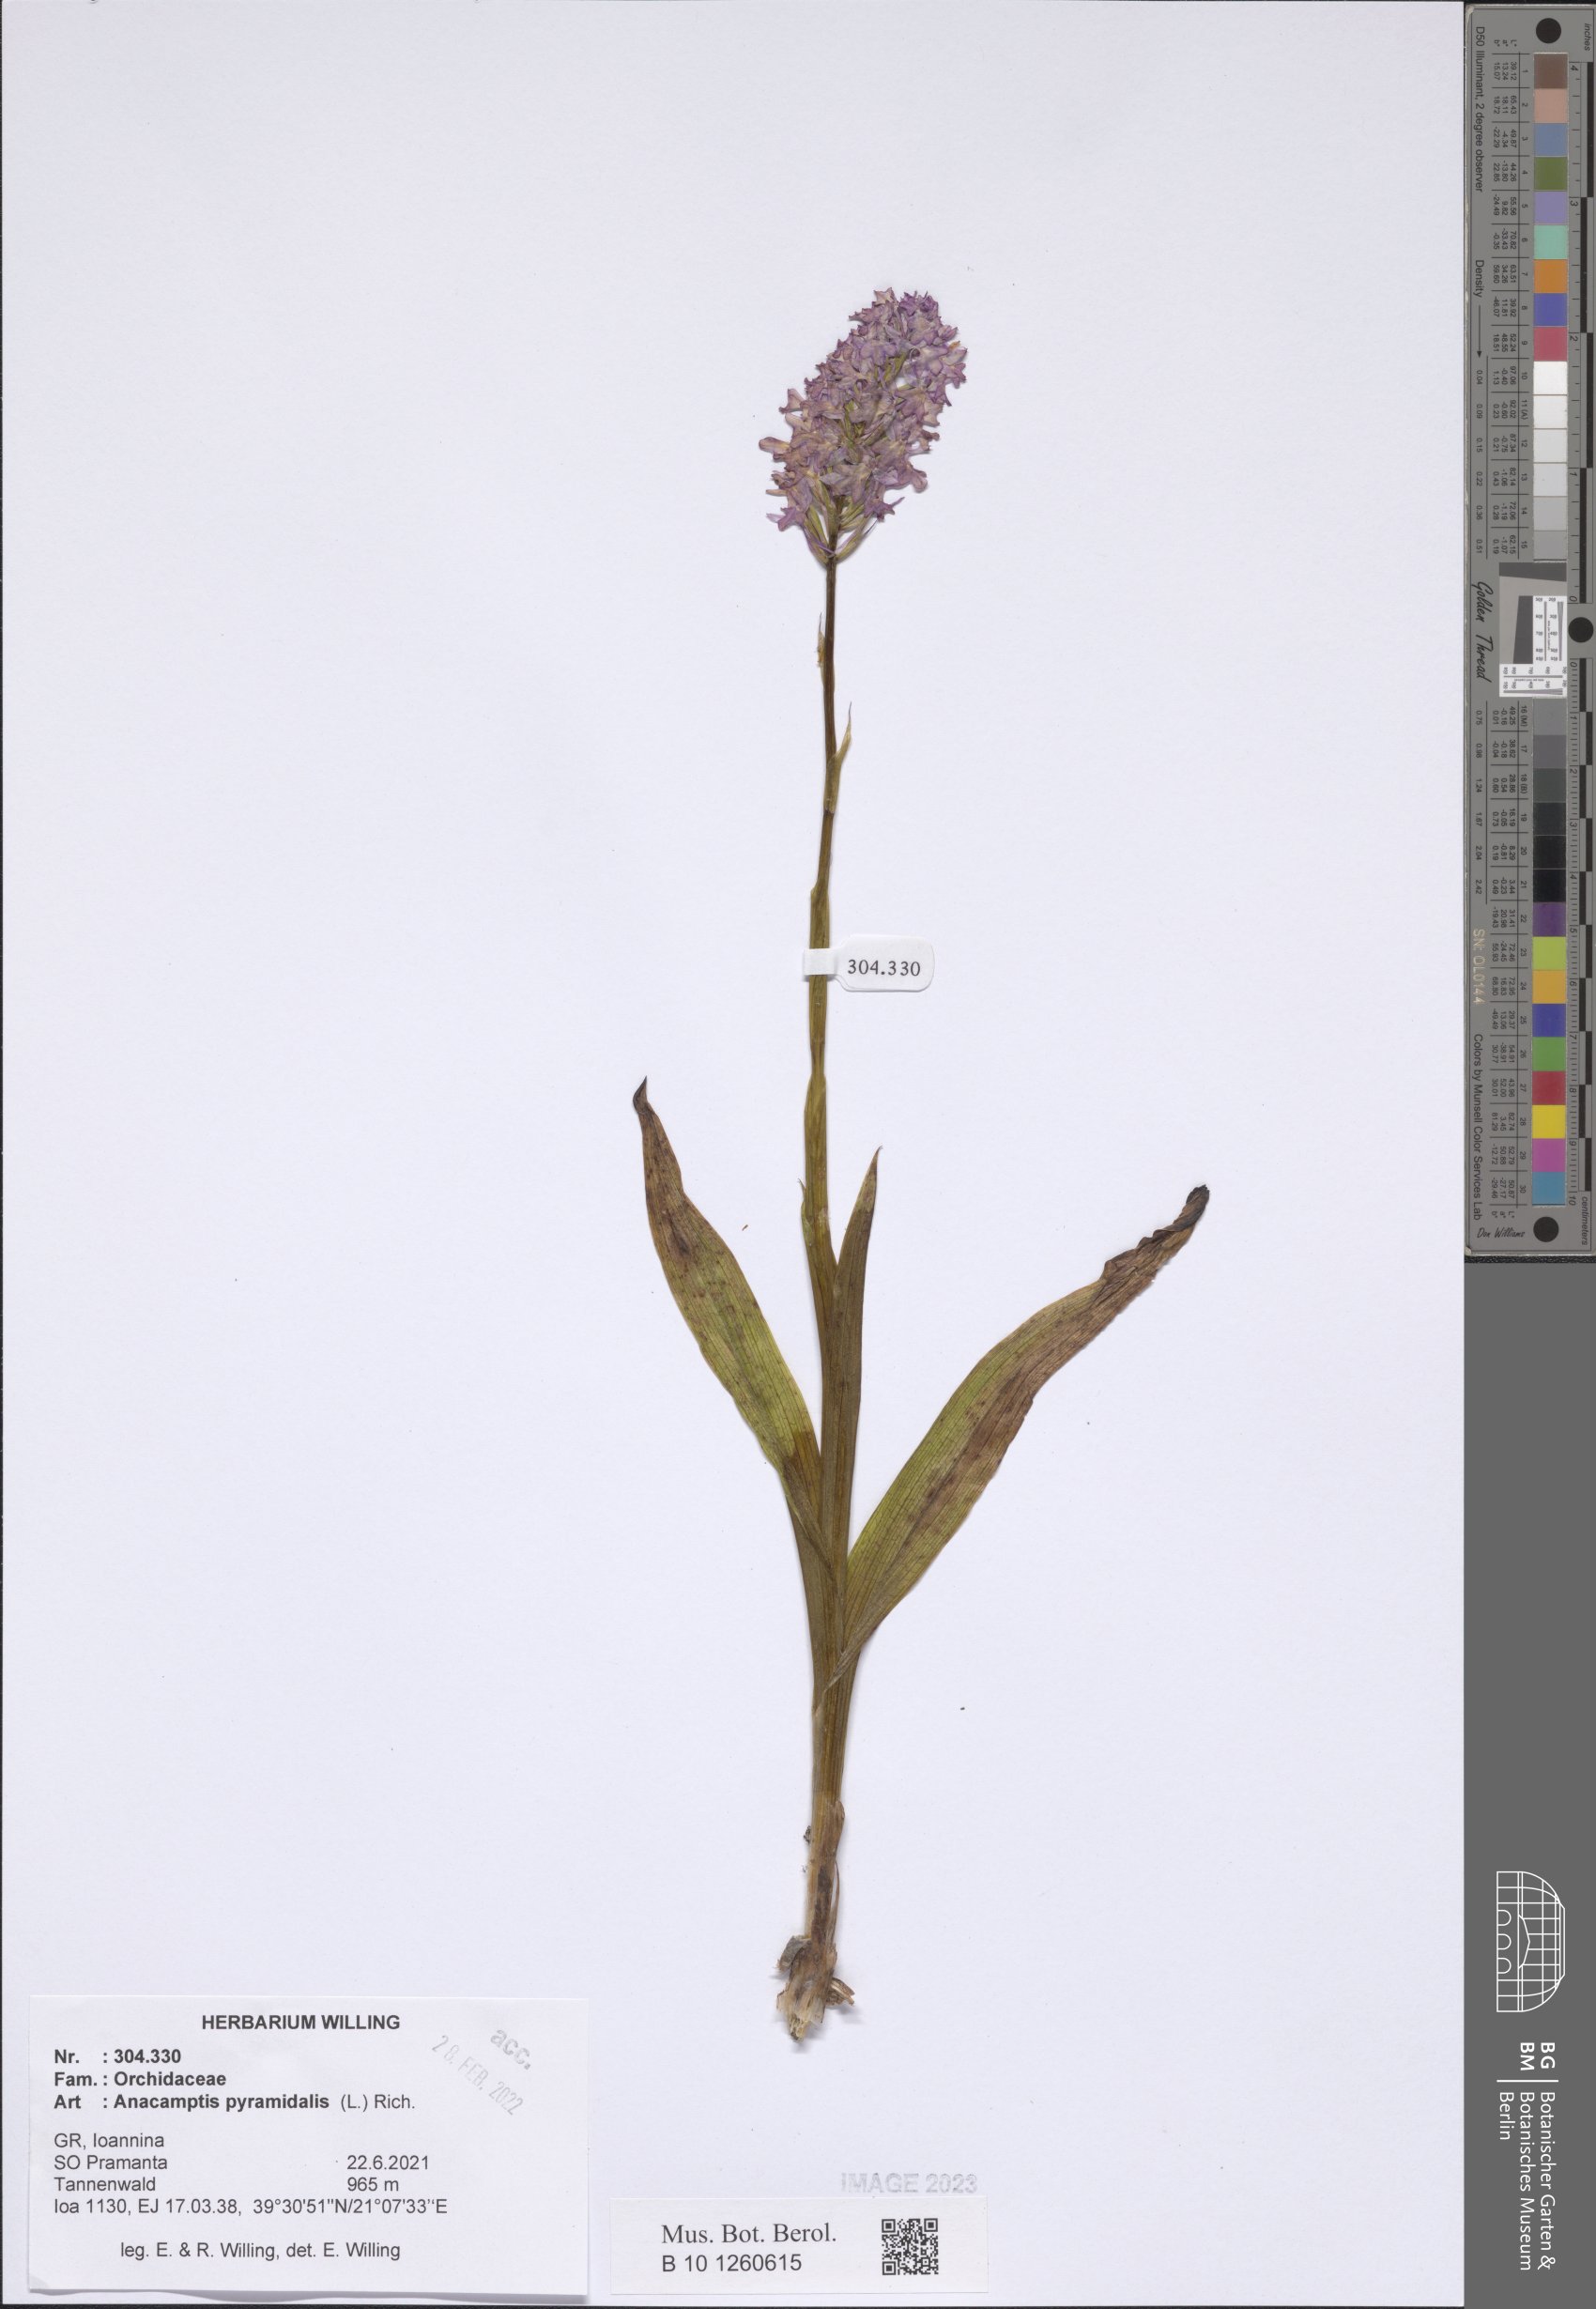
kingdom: Plantae
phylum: Tracheophyta
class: Liliopsida
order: Asparagales
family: Orchidaceae
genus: Anacamptis
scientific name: Anacamptis pyramidalis
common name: Pyramidal orchid
